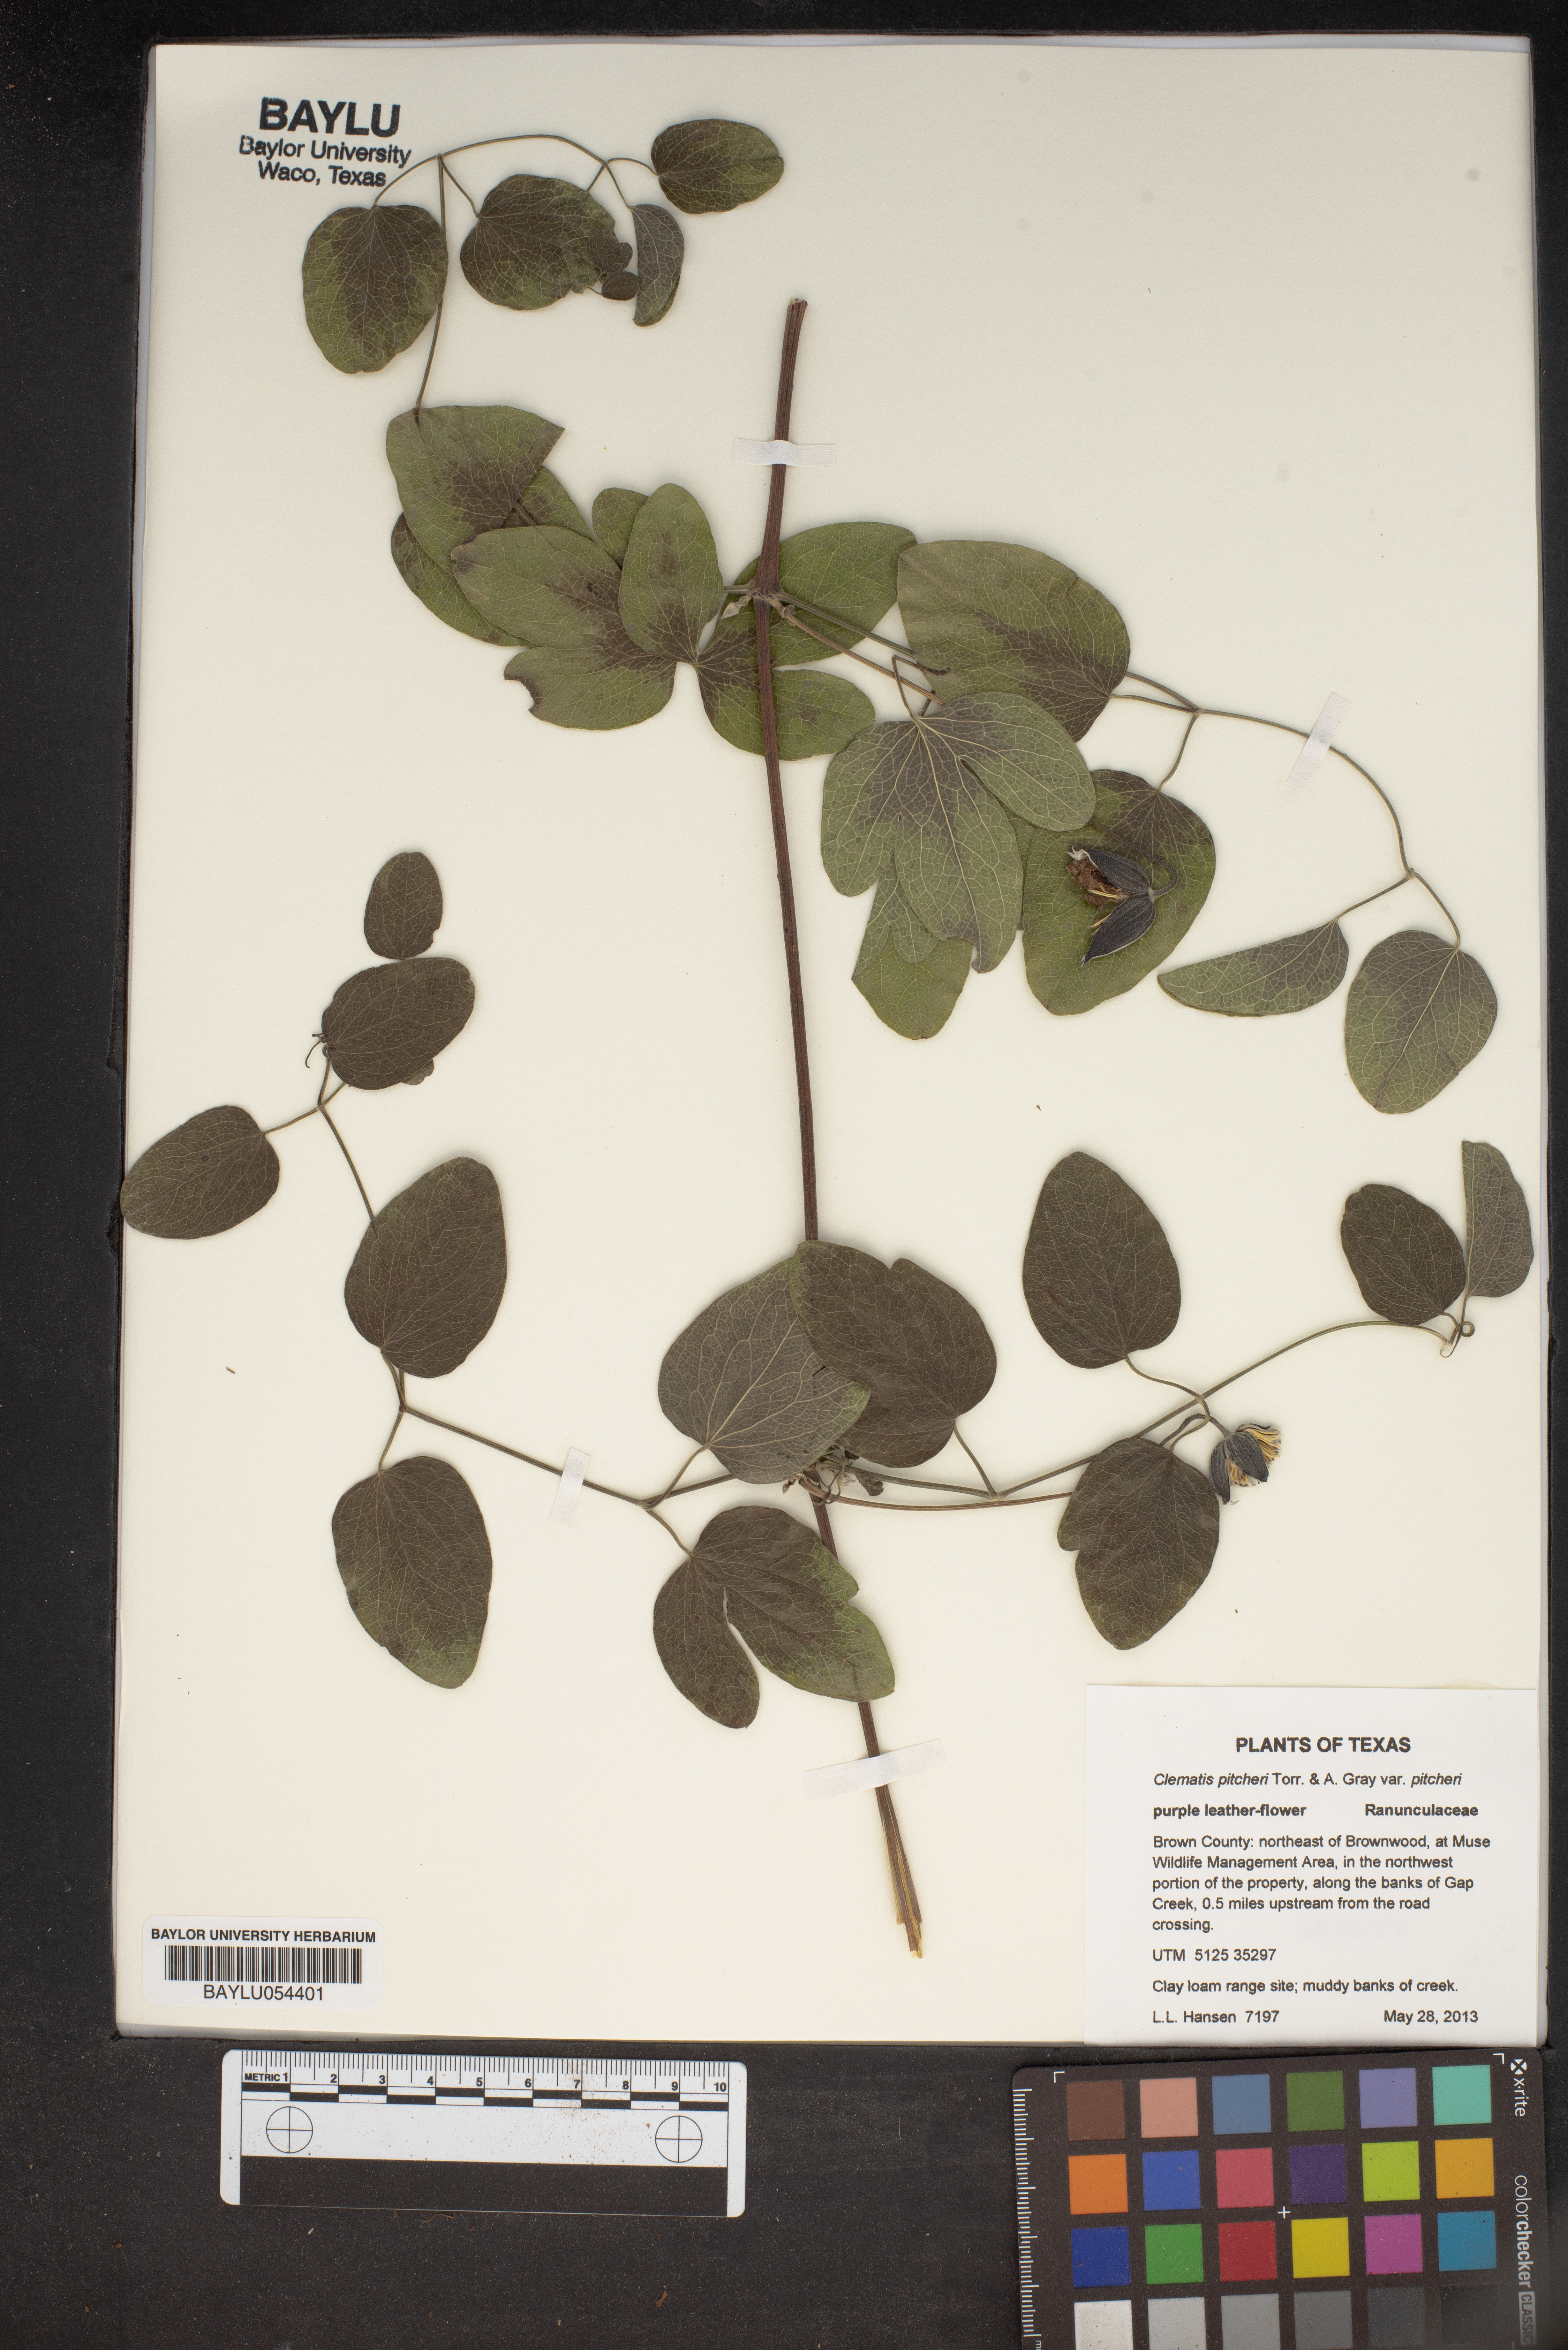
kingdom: Plantae
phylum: Tracheophyta
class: Magnoliopsida
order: Ranunculales
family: Ranunculaceae
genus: Clematis
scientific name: Clematis pitcheri
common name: Bellflower clematis
